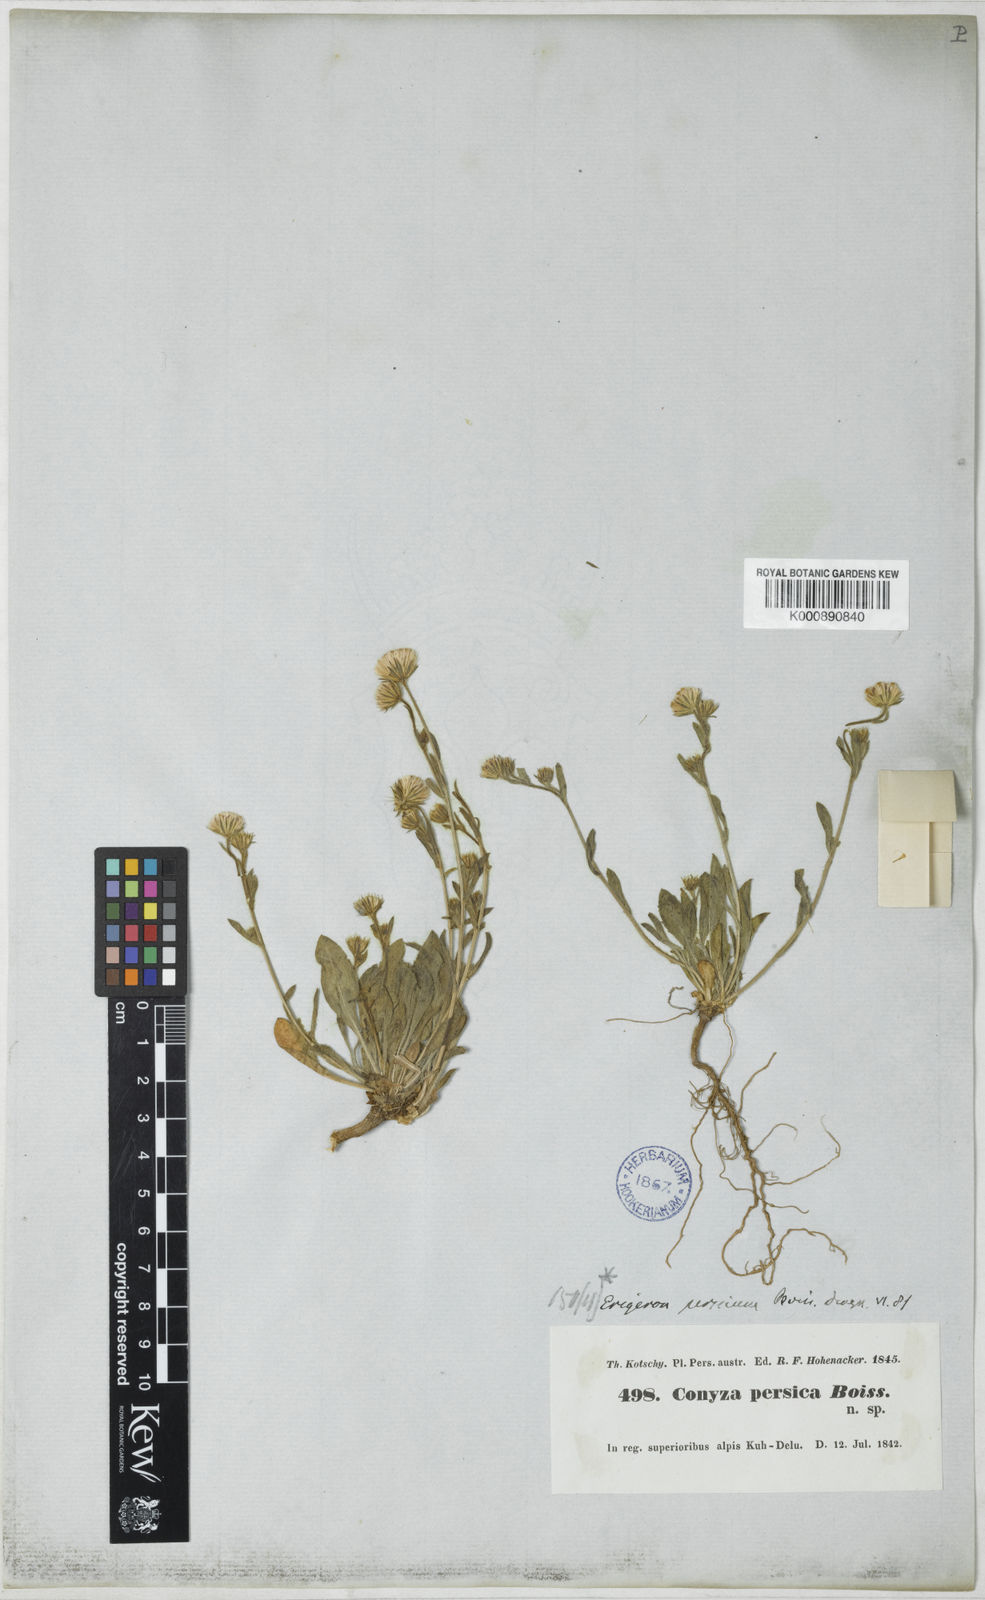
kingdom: Plantae
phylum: Tracheophyta
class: Magnoliopsida
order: Asterales
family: Asteraceae
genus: Psychrogeton
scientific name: Psychrogeton persicus
